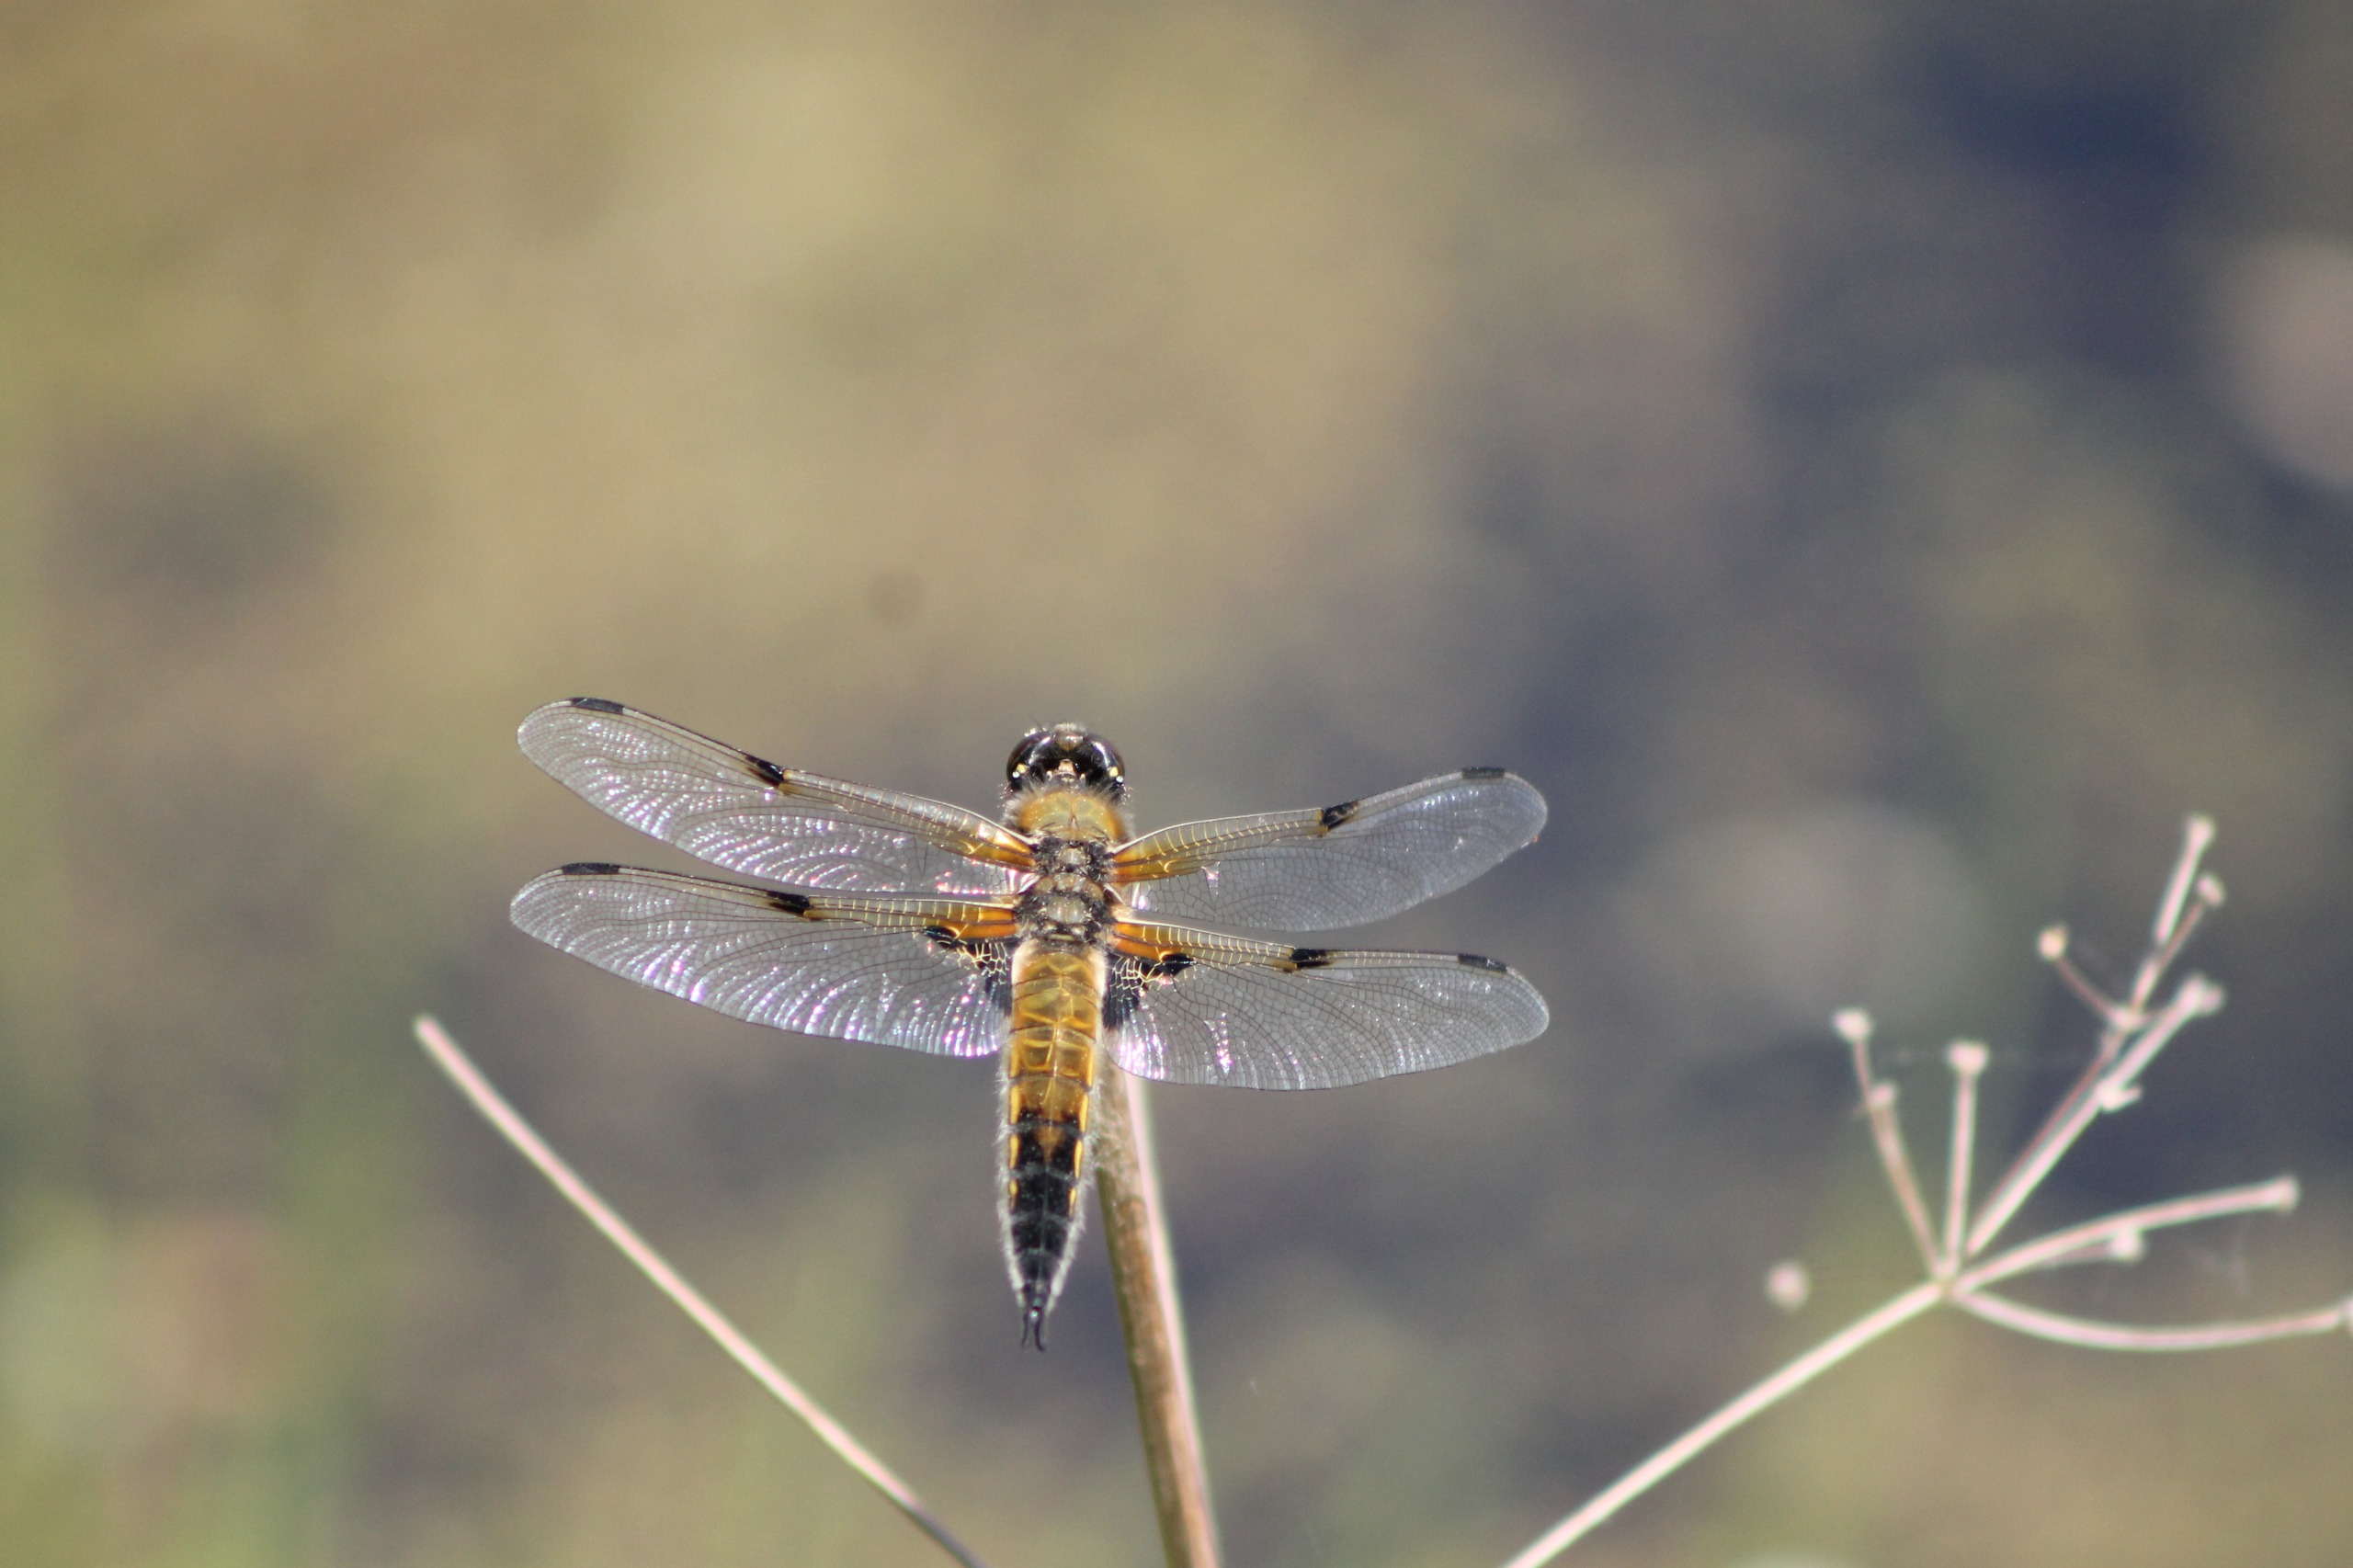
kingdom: Animalia
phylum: Arthropoda
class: Insecta
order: Odonata
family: Libellulidae
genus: Libellula
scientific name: Libellula quadrimaculata
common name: Fireplettet libel
